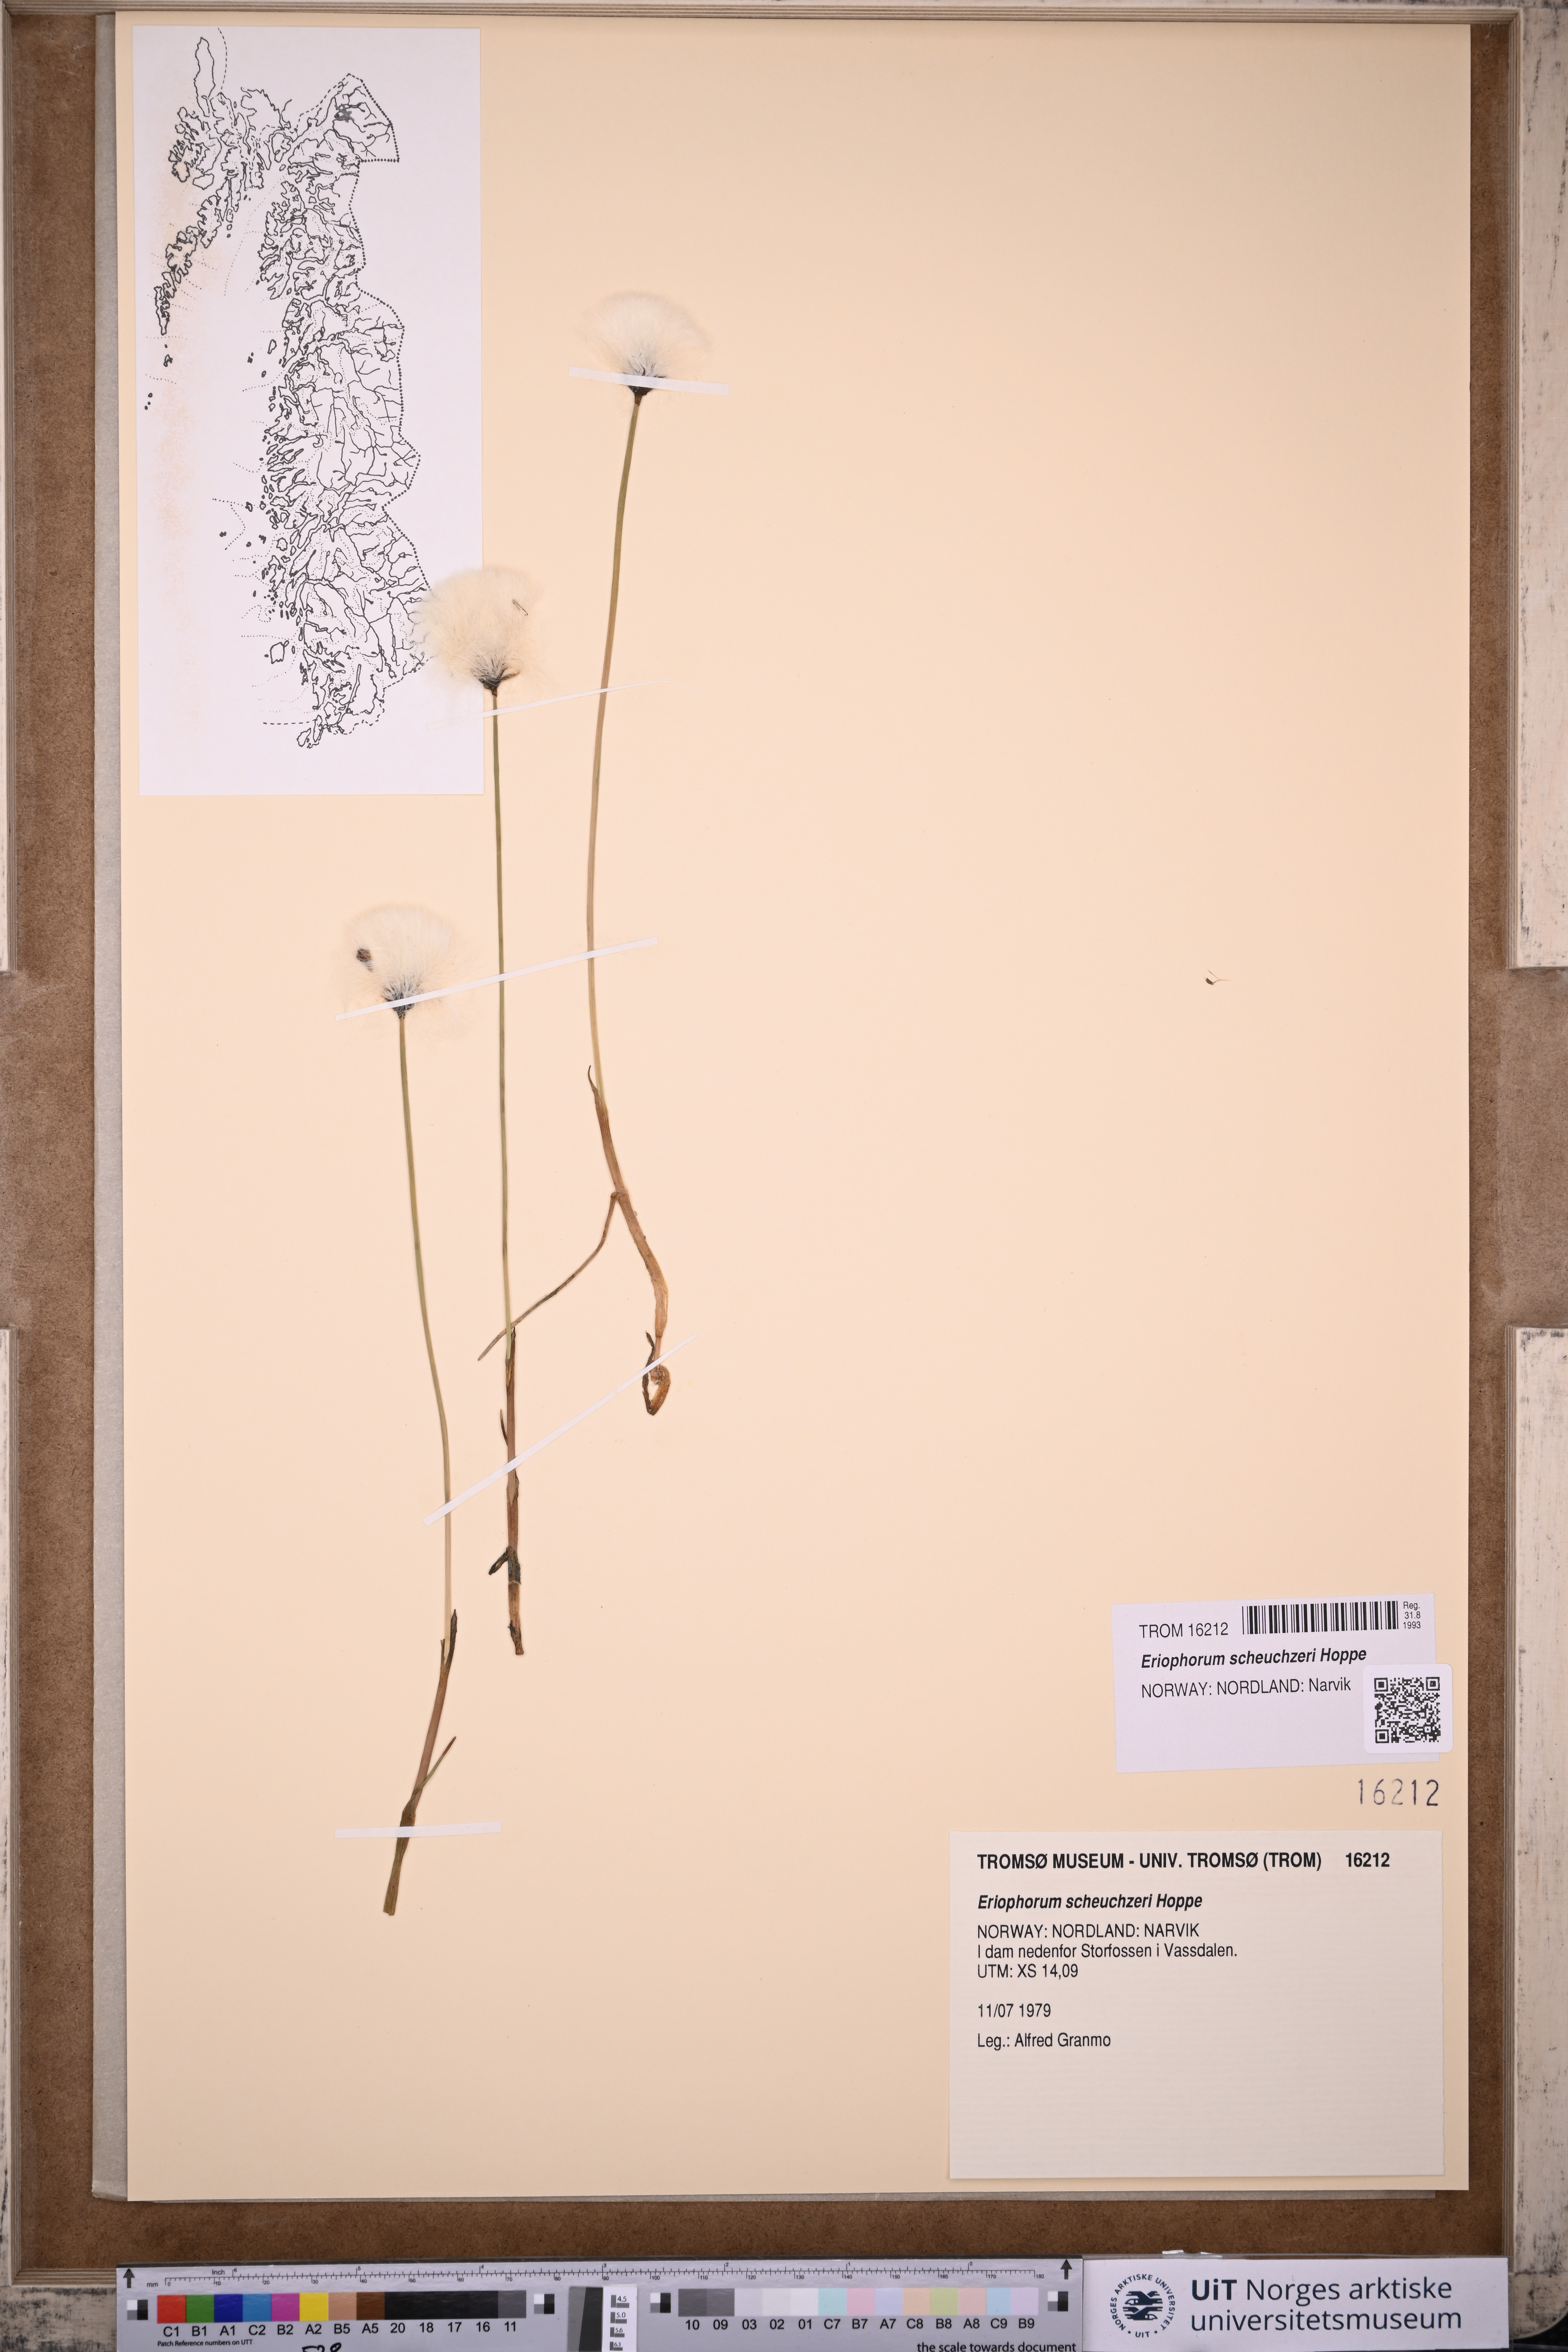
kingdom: Plantae
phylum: Tracheophyta
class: Liliopsida
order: Poales
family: Cyperaceae
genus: Eriophorum
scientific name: Eriophorum scheuchzeri
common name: Scheuchzer's cottongrass
